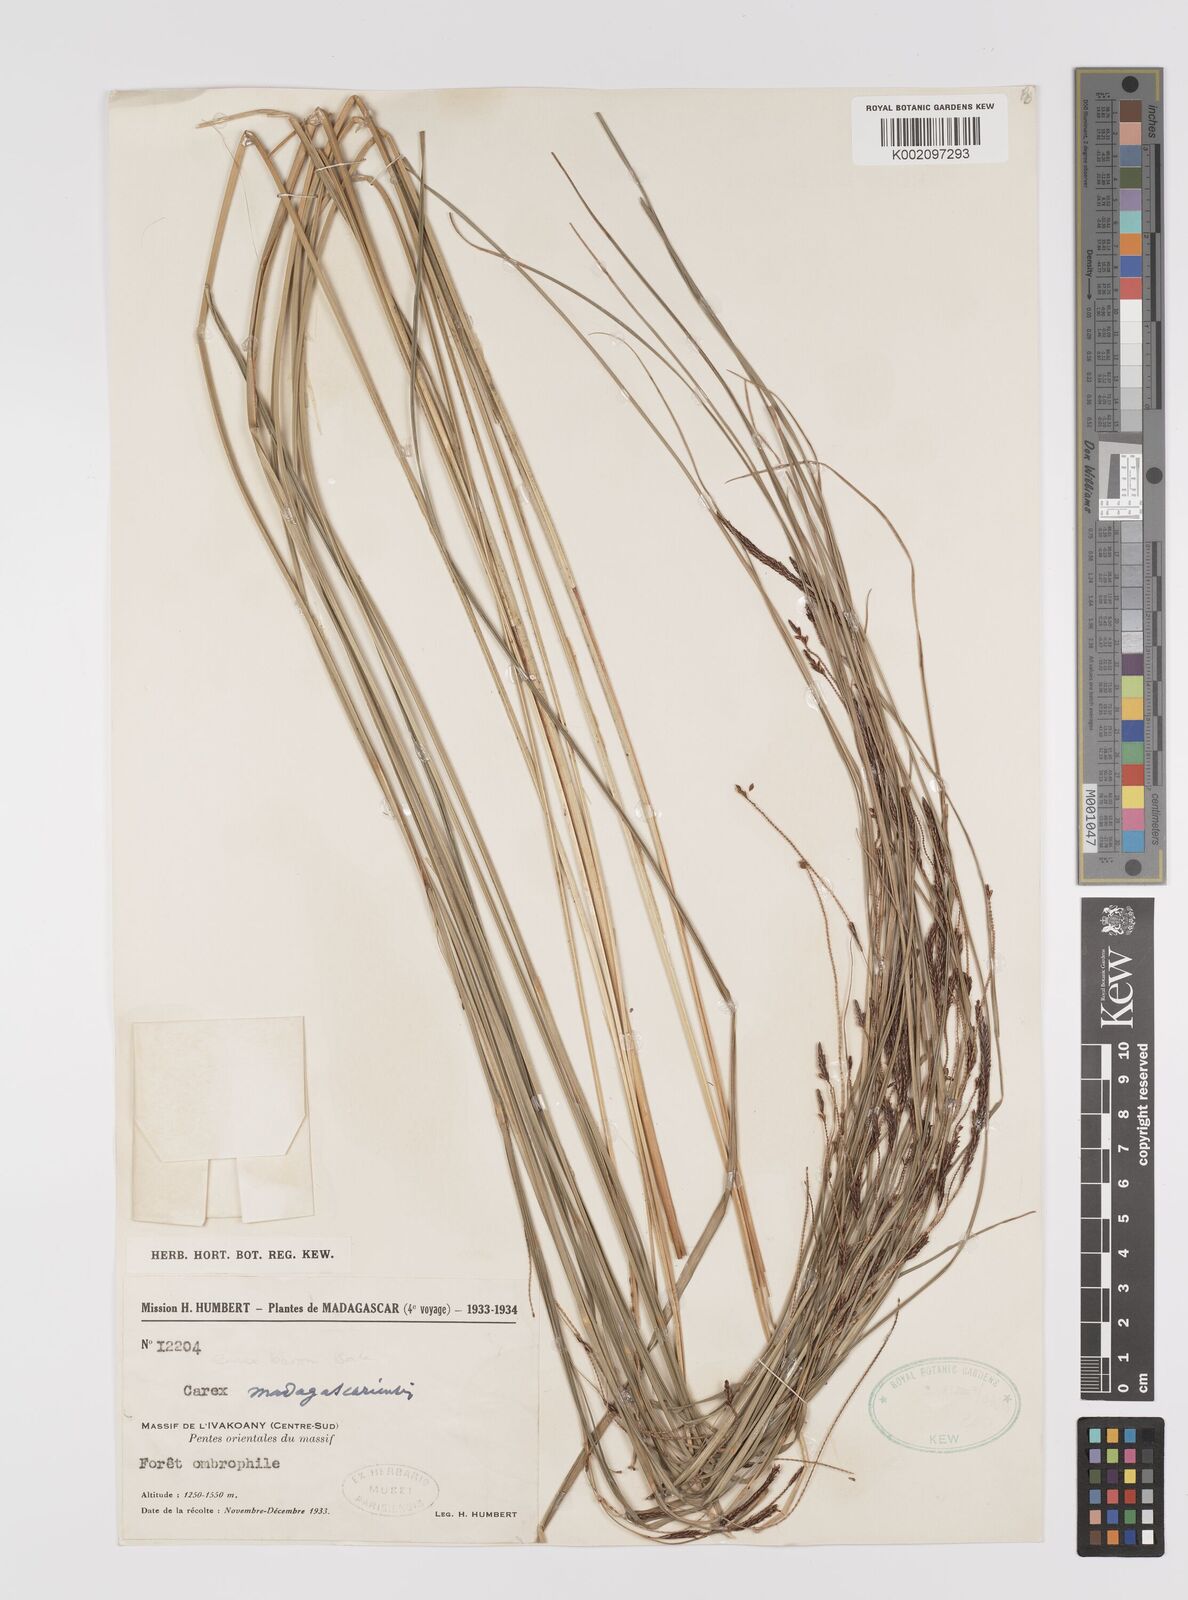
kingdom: Plantae
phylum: Tracheophyta
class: Liliopsida
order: Poales
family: Cyperaceae
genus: Carex
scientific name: Carex madagascariensis
